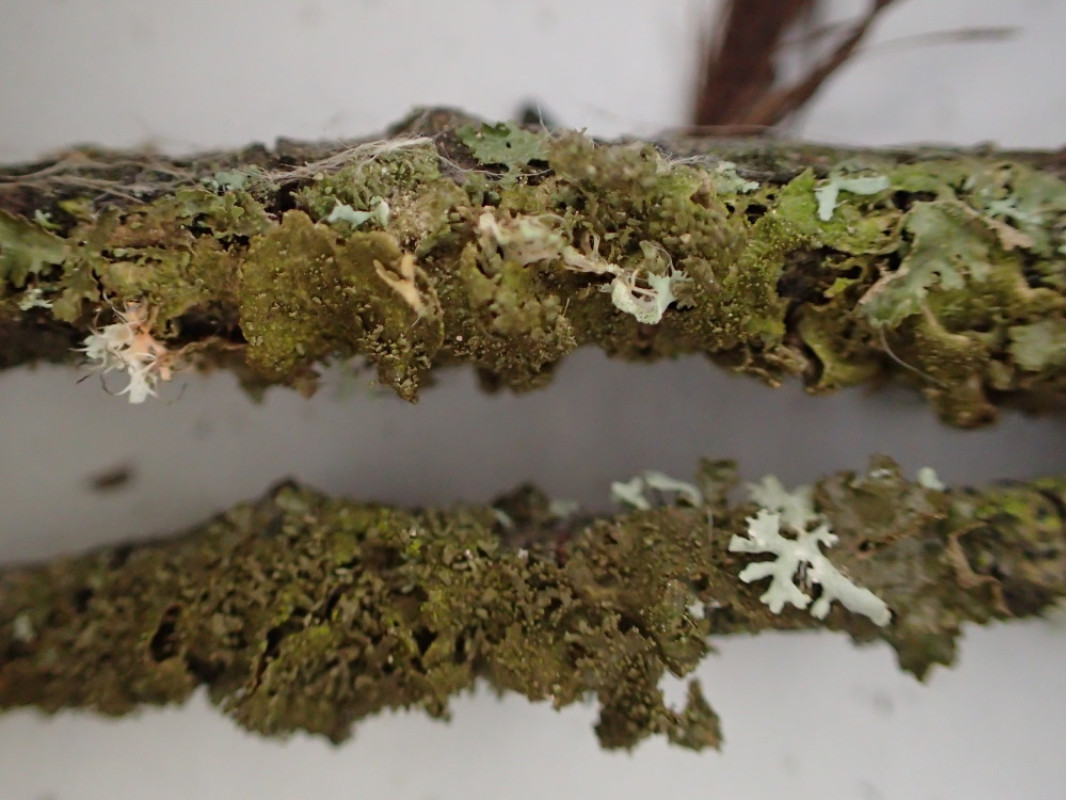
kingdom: Fungi
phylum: Ascomycota
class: Lecanoromycetes
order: Lecanorales
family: Parmeliaceae
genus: Melanohalea
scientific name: Melanohalea exasperatula
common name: kølle-skållav
